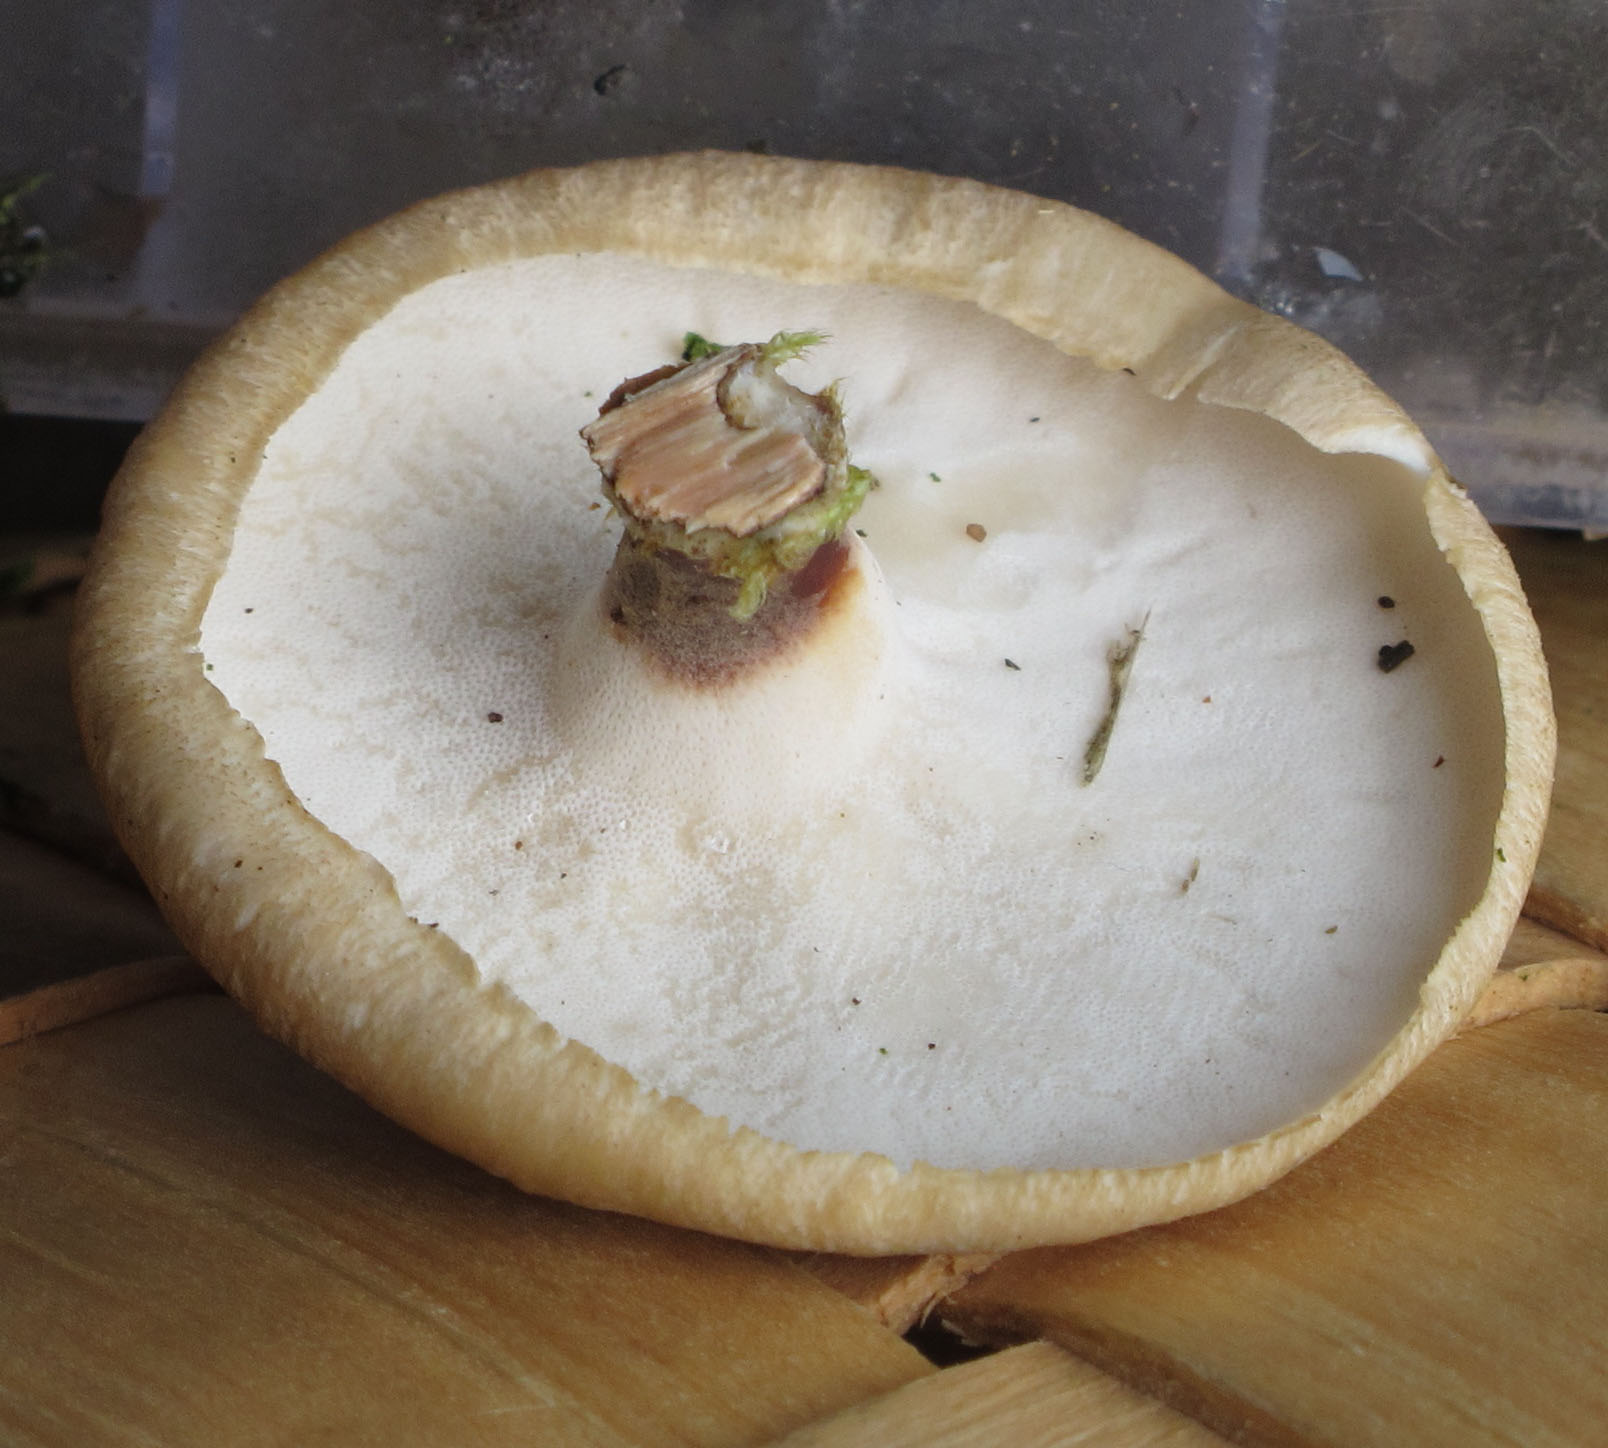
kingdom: Fungi
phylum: Basidiomycota
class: Agaricomycetes
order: Polyporales
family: Polyporaceae
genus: Polyporus
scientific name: Polyporus
